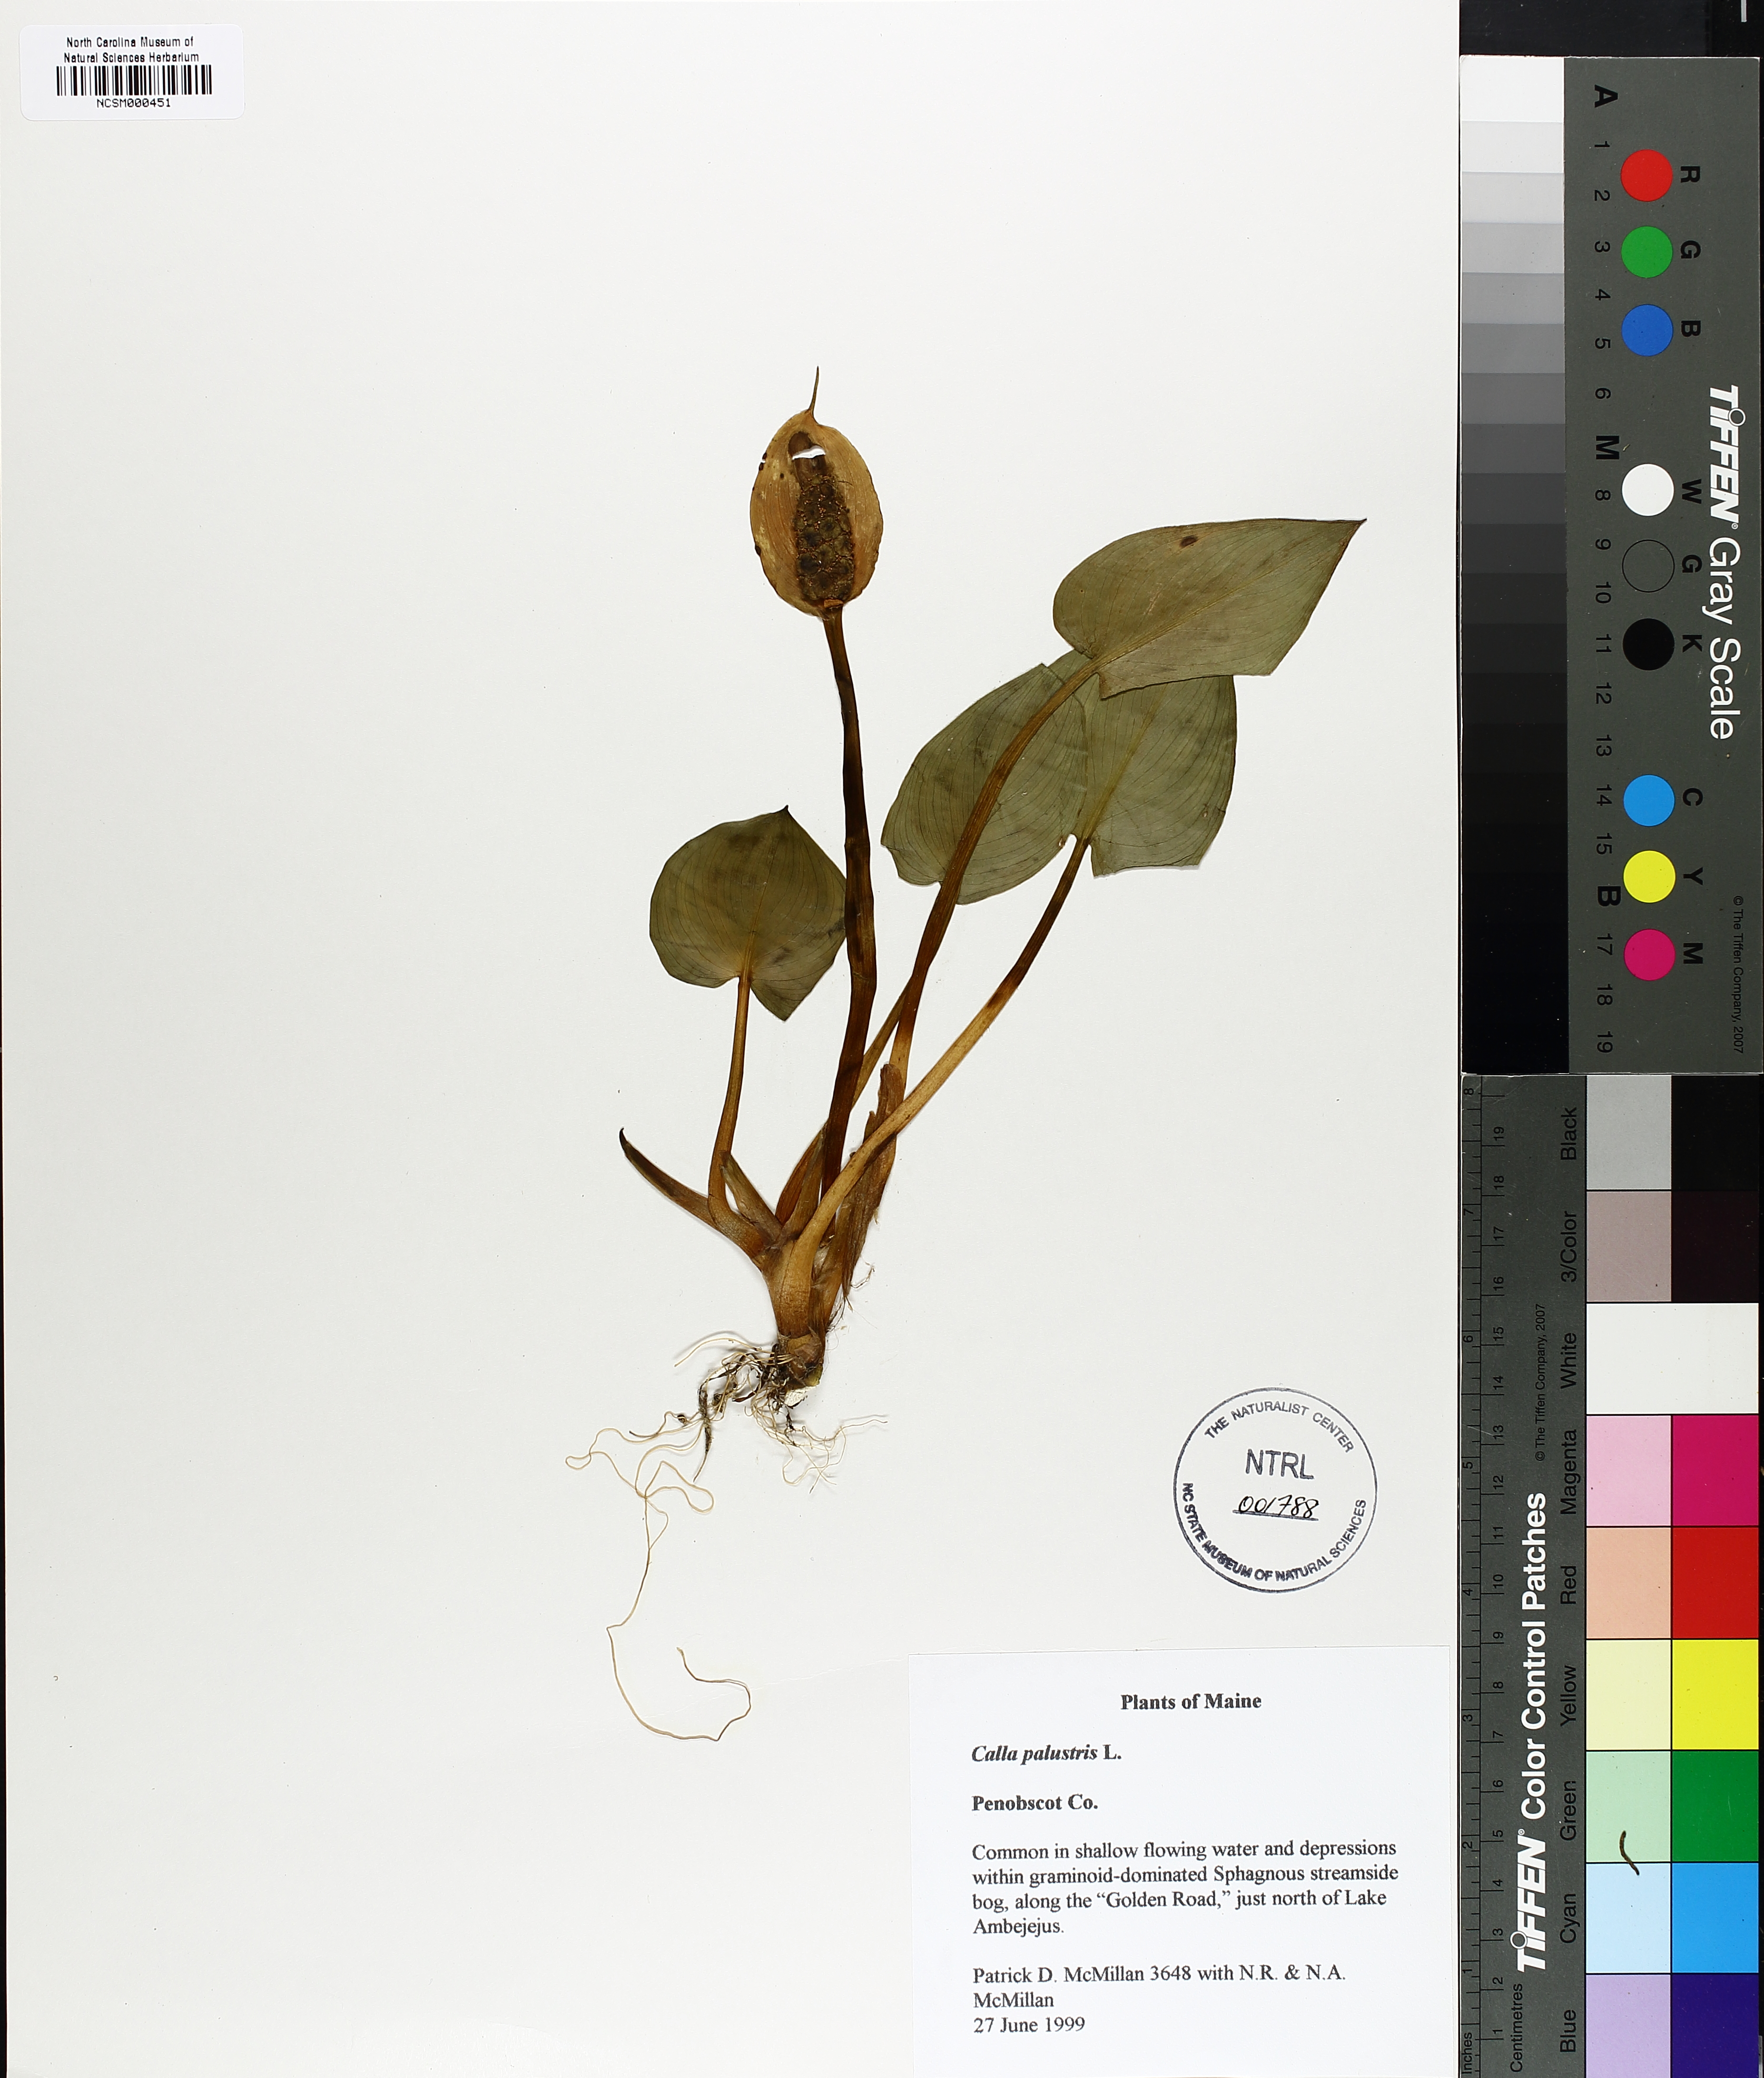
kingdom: Plantae
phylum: Tracheophyta
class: Liliopsida
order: Alismatales
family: Araceae
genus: Calla
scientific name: Calla palustris
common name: Bog arum
